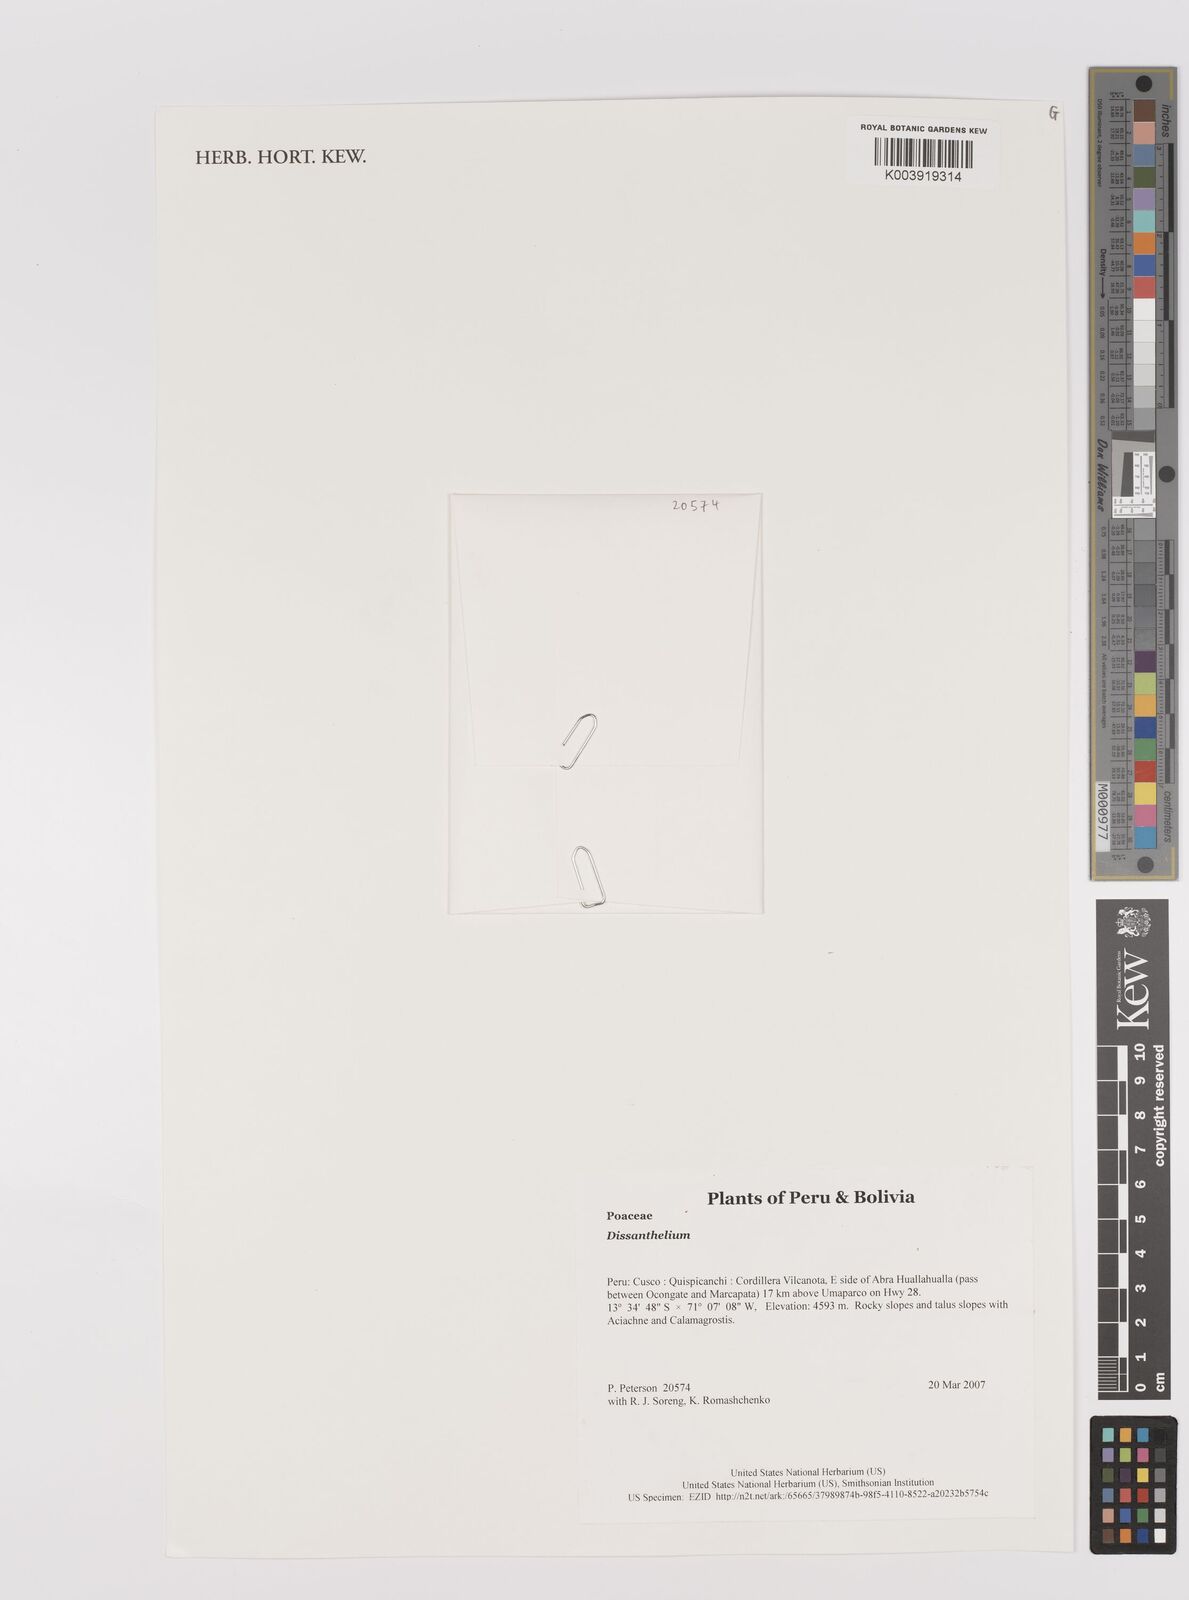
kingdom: Plantae
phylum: Tracheophyta
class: Liliopsida
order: Poales
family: Poaceae
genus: Poa
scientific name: Poa
